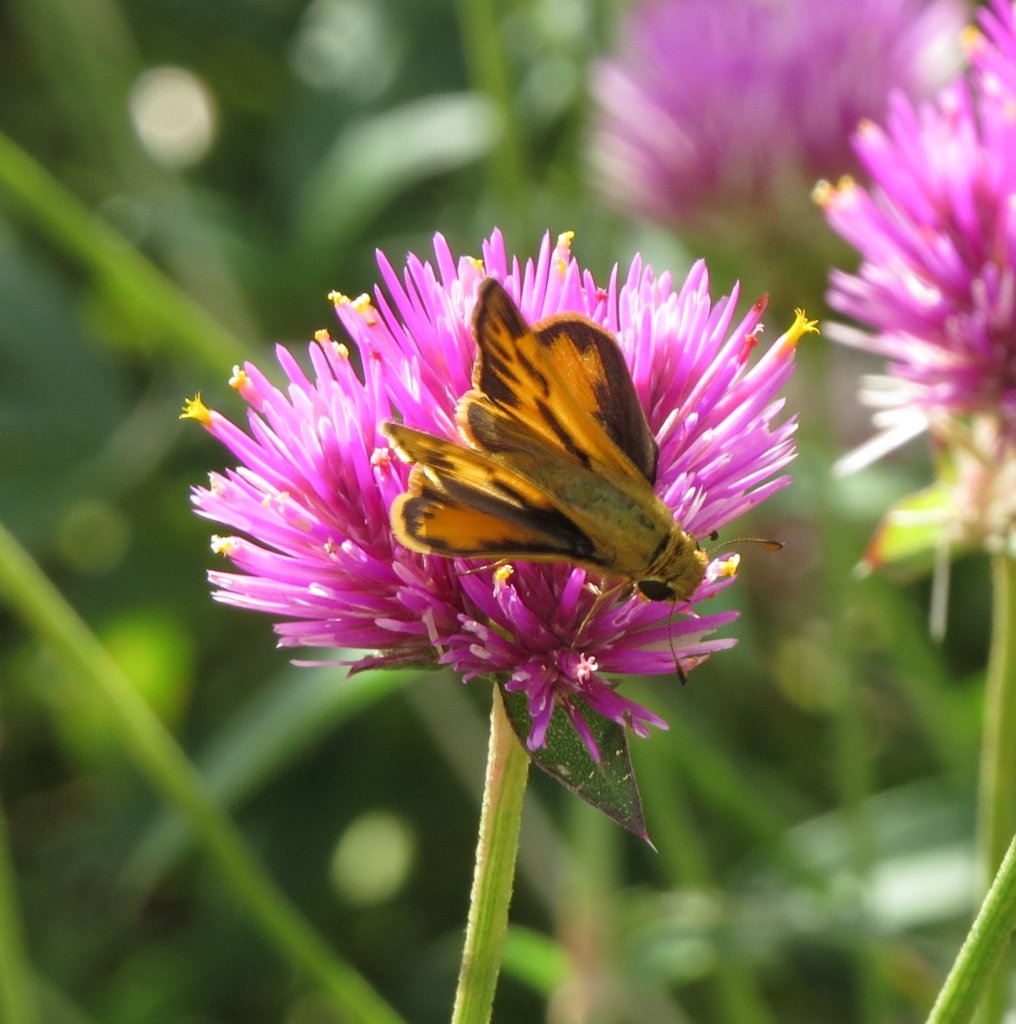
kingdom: Animalia
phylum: Arthropoda
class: Insecta
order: Lepidoptera
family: Hesperiidae
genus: Hylephila
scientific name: Hylephila phyleus
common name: Fiery Skipper
